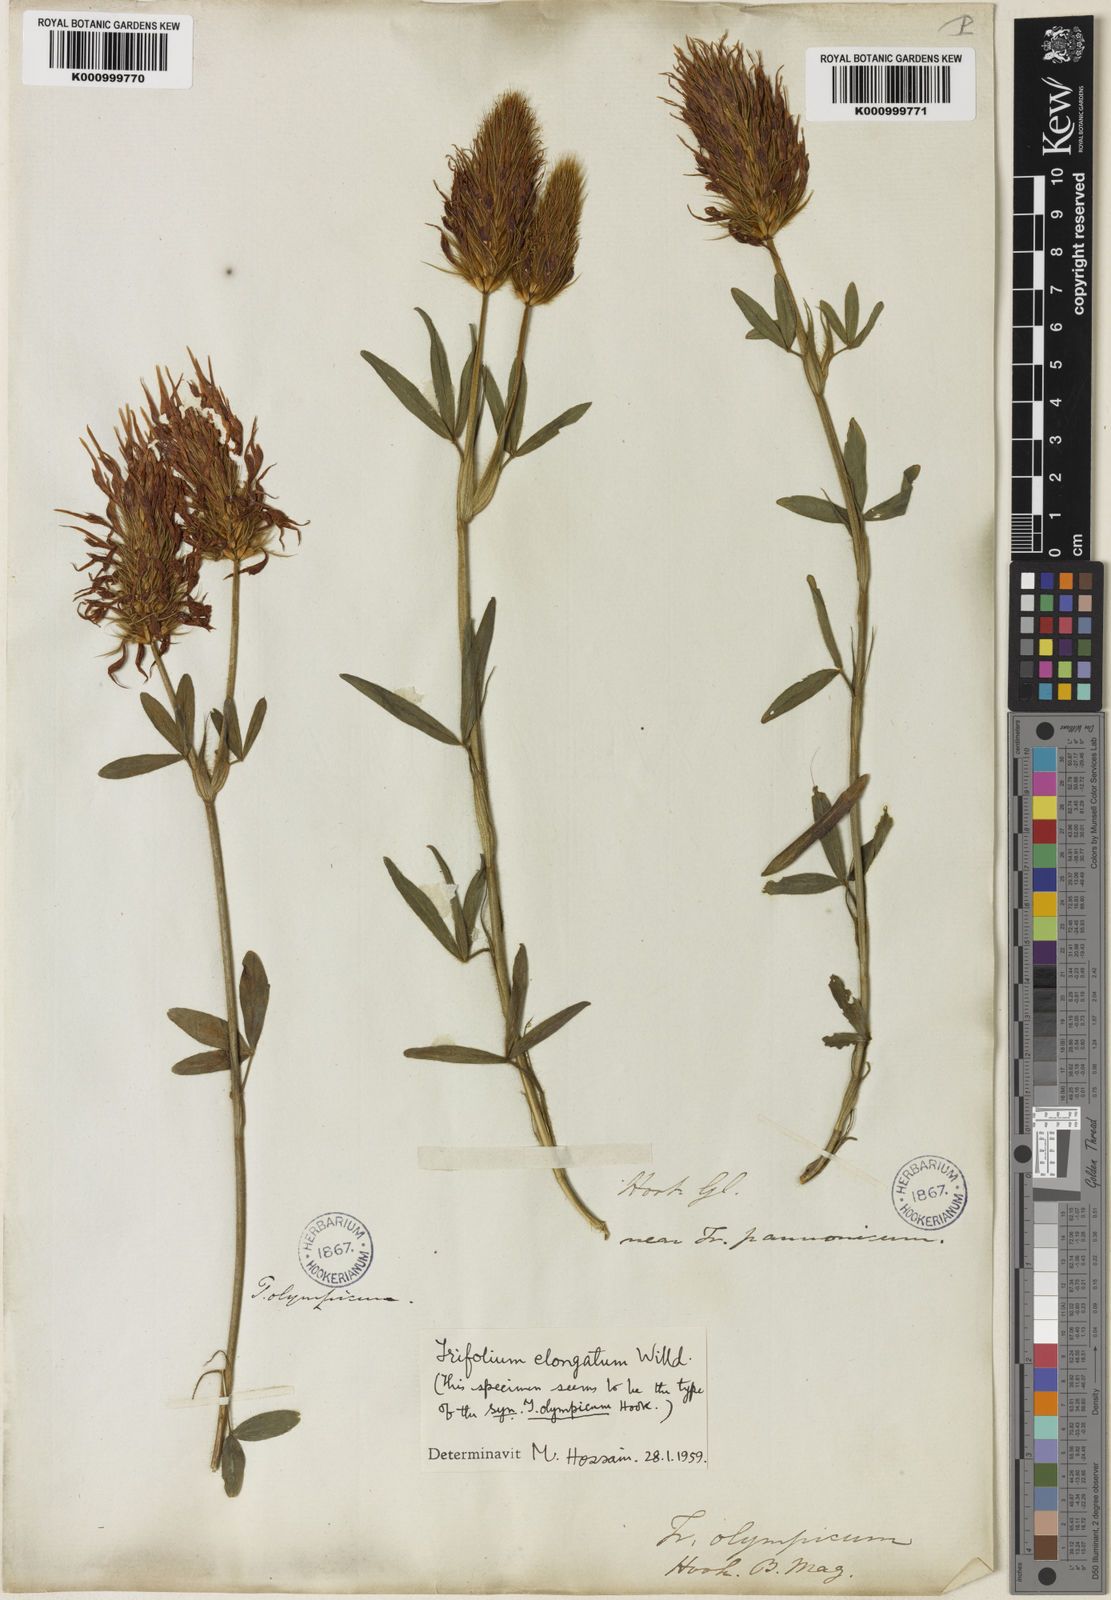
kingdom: Plantae
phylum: Tracheophyta
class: Magnoliopsida
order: Fabales
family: Fabaceae
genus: Trifolium
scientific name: Trifolium pannonicum
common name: Hungarian clover
